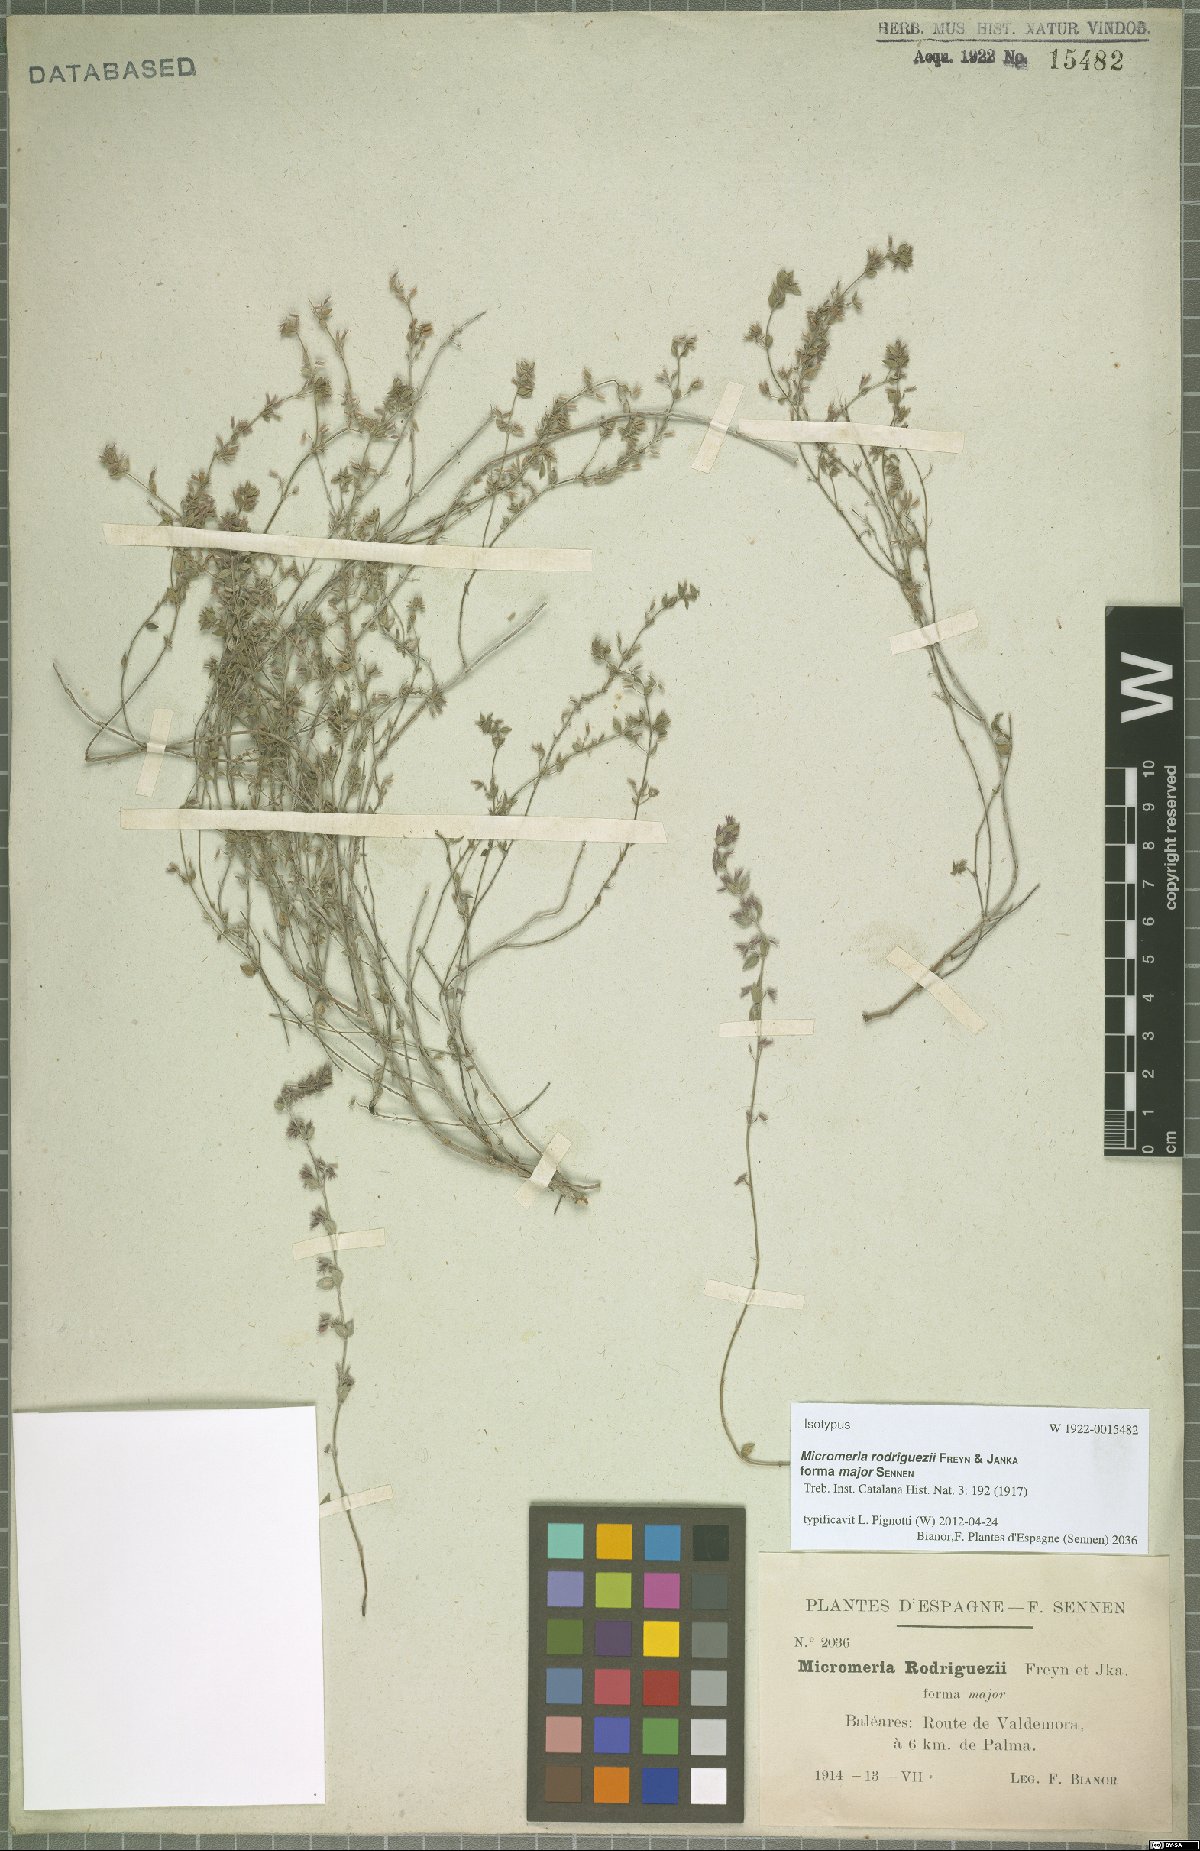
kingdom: Plantae
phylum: Tracheophyta
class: Magnoliopsida
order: Lamiales
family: Lamiaceae
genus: Micromeria
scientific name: Micromeria microphylla
